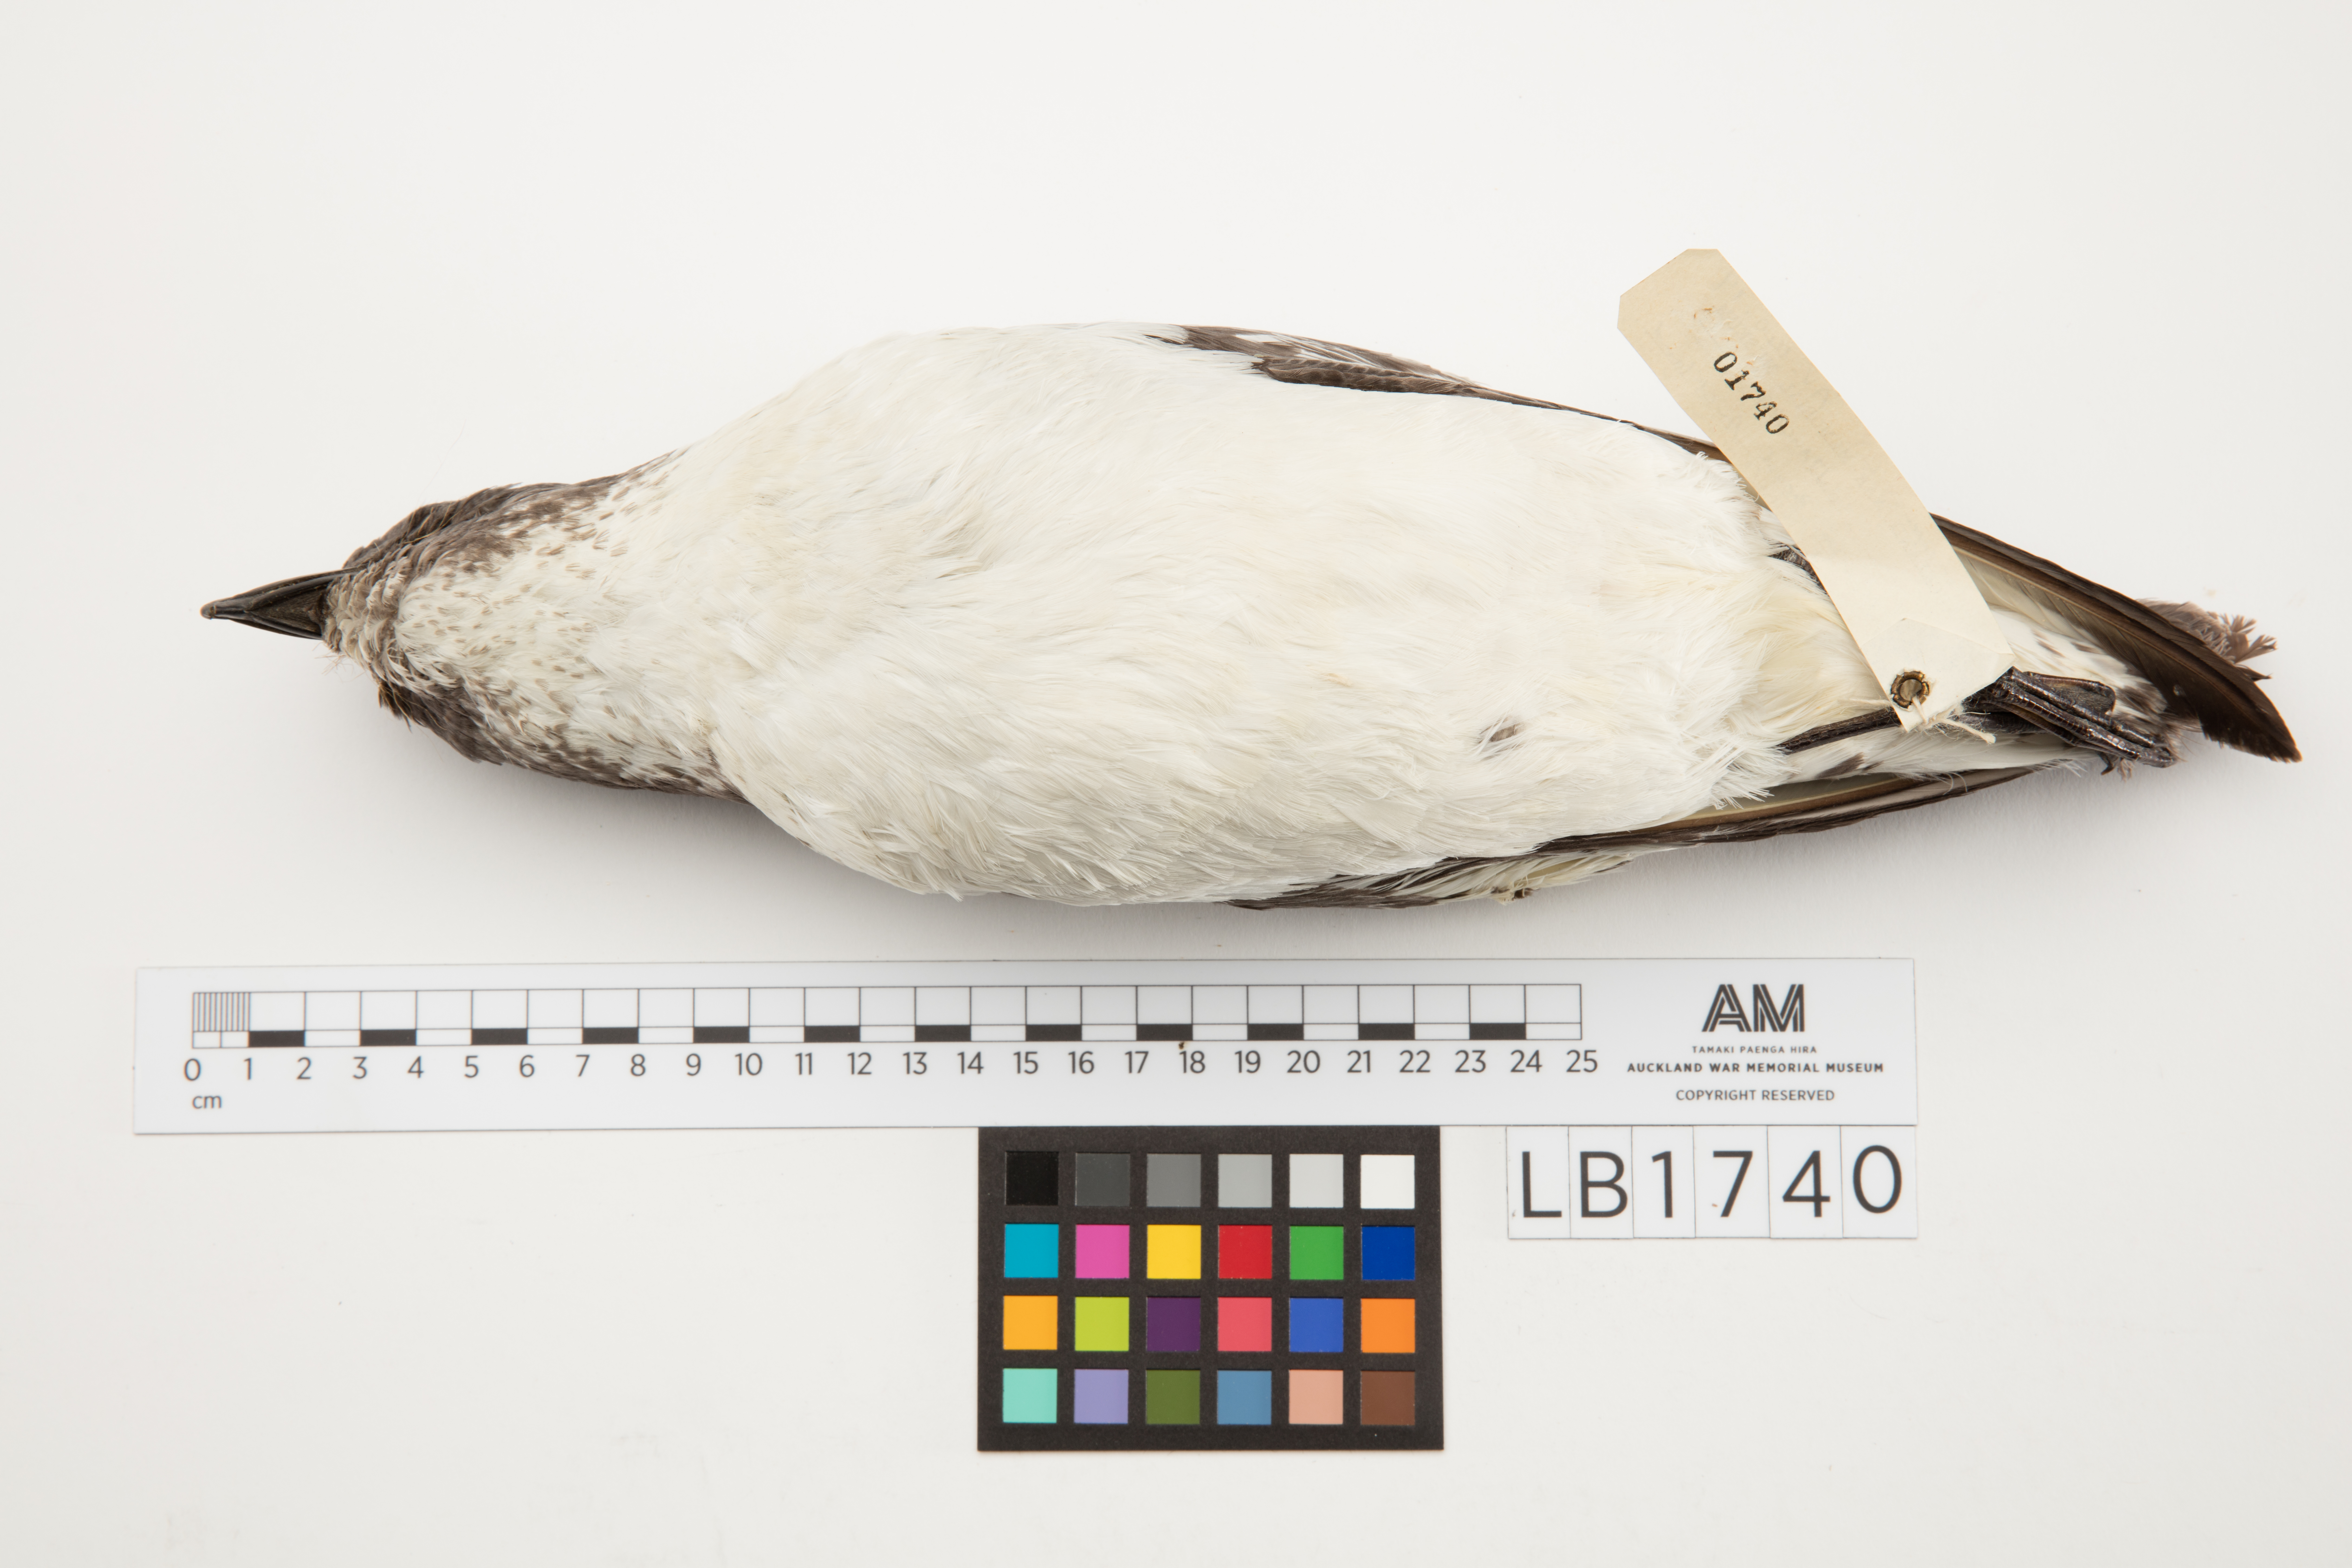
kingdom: Animalia
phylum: Chordata
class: Aves
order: Procellariiformes
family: Procellariidae
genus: Daption
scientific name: Daption capense
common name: Cape petrel
